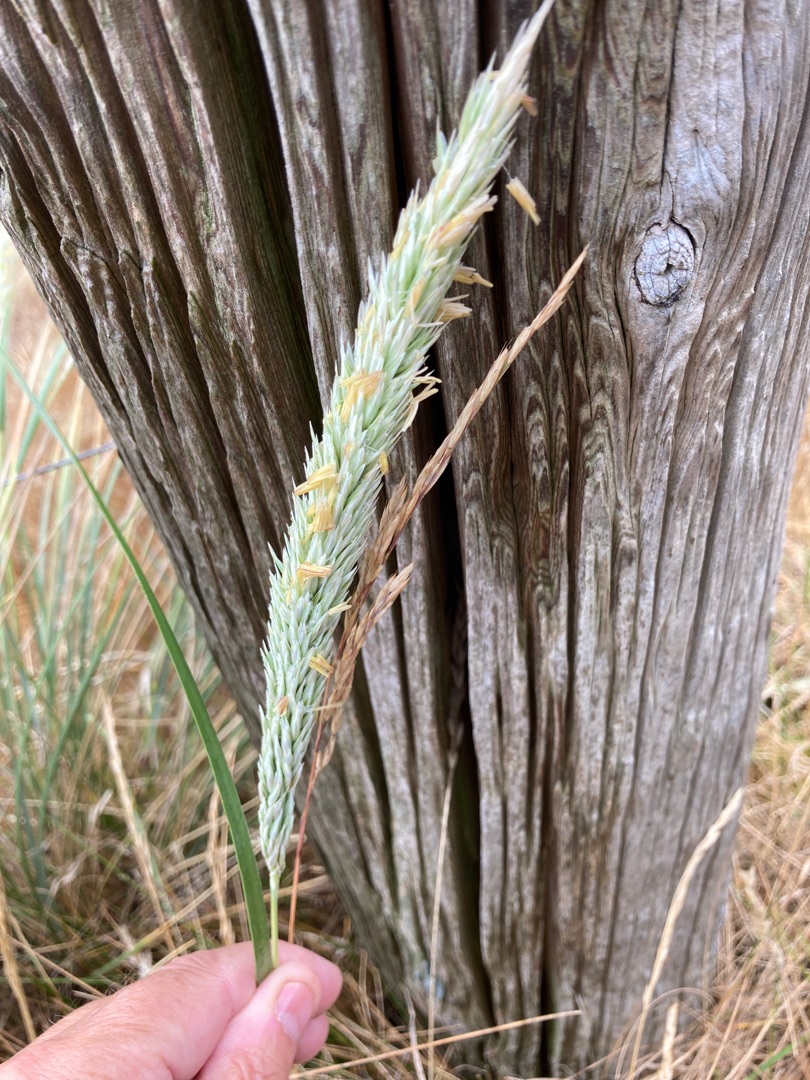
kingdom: Plantae
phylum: Tracheophyta
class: Liliopsida
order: Poales
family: Poaceae
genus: Calamagrostis
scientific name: Calamagrostis arenaria
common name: Sand-hjælme
